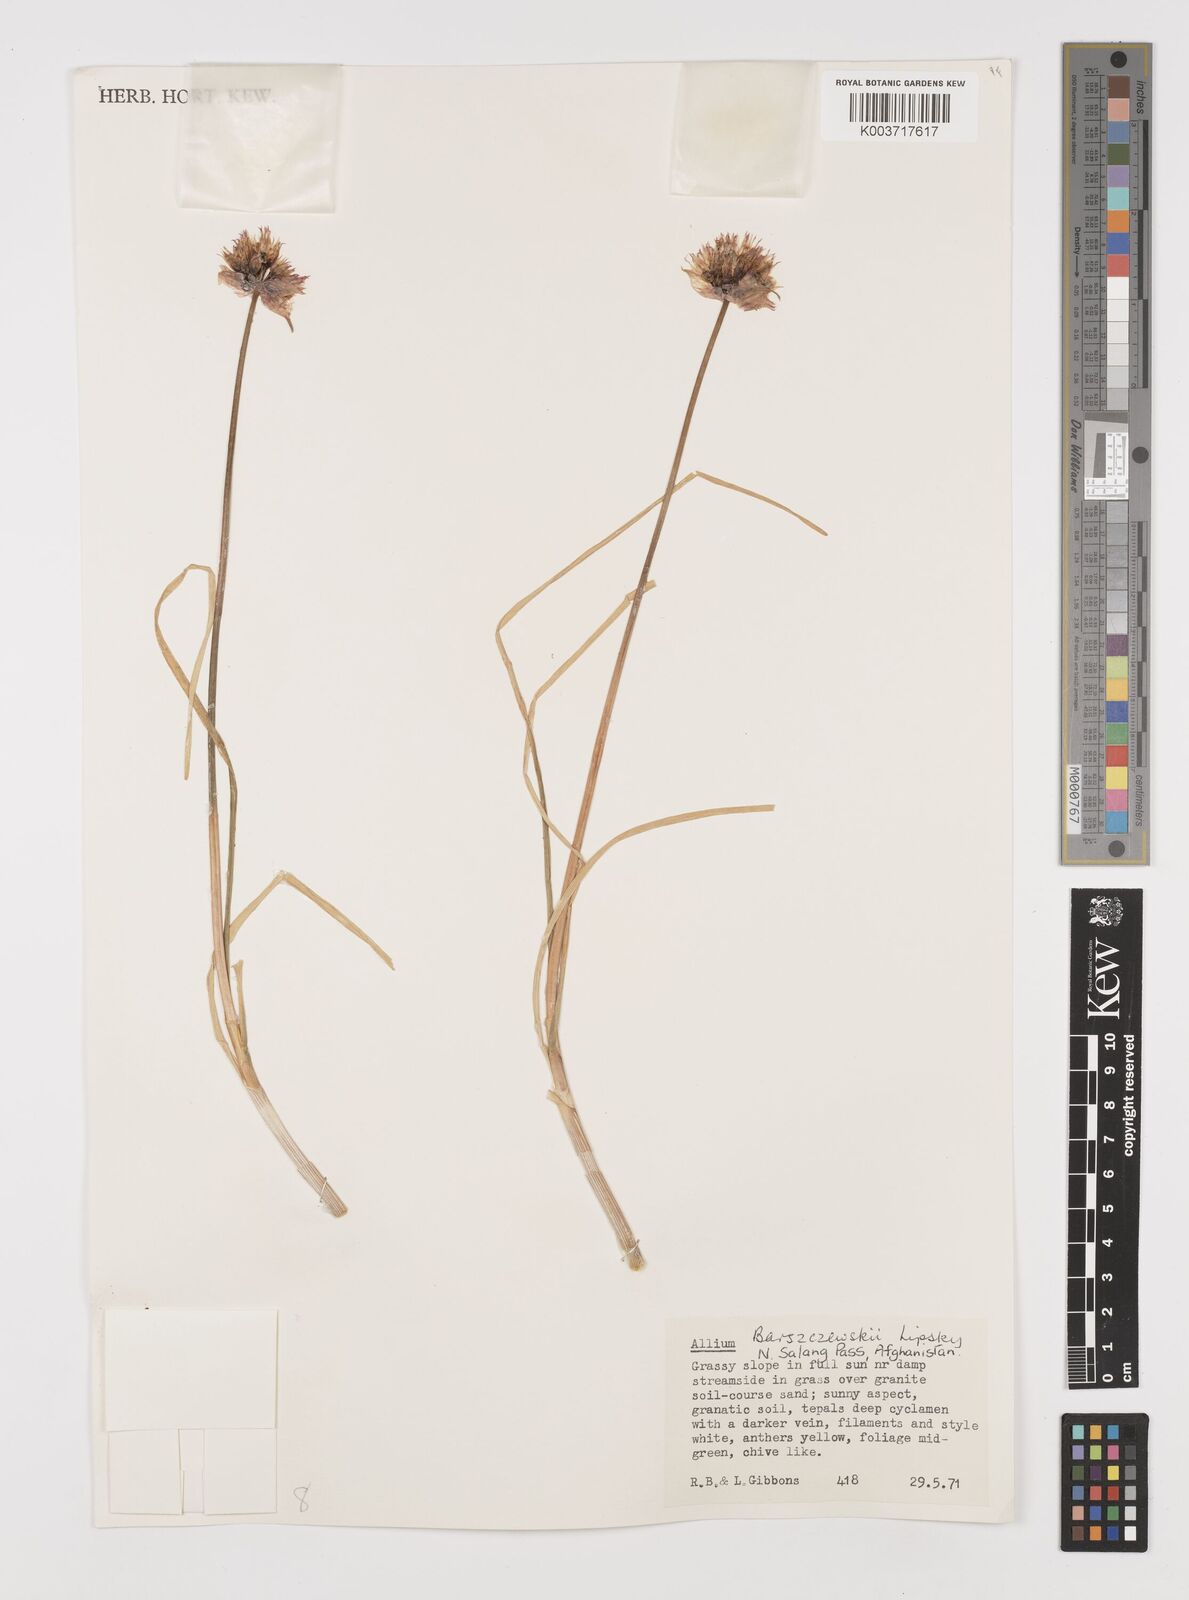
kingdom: Plantae
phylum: Tracheophyta
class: Liliopsida
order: Asparagales
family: Amaryllidaceae
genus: Allium
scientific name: Allium barsczewskii
